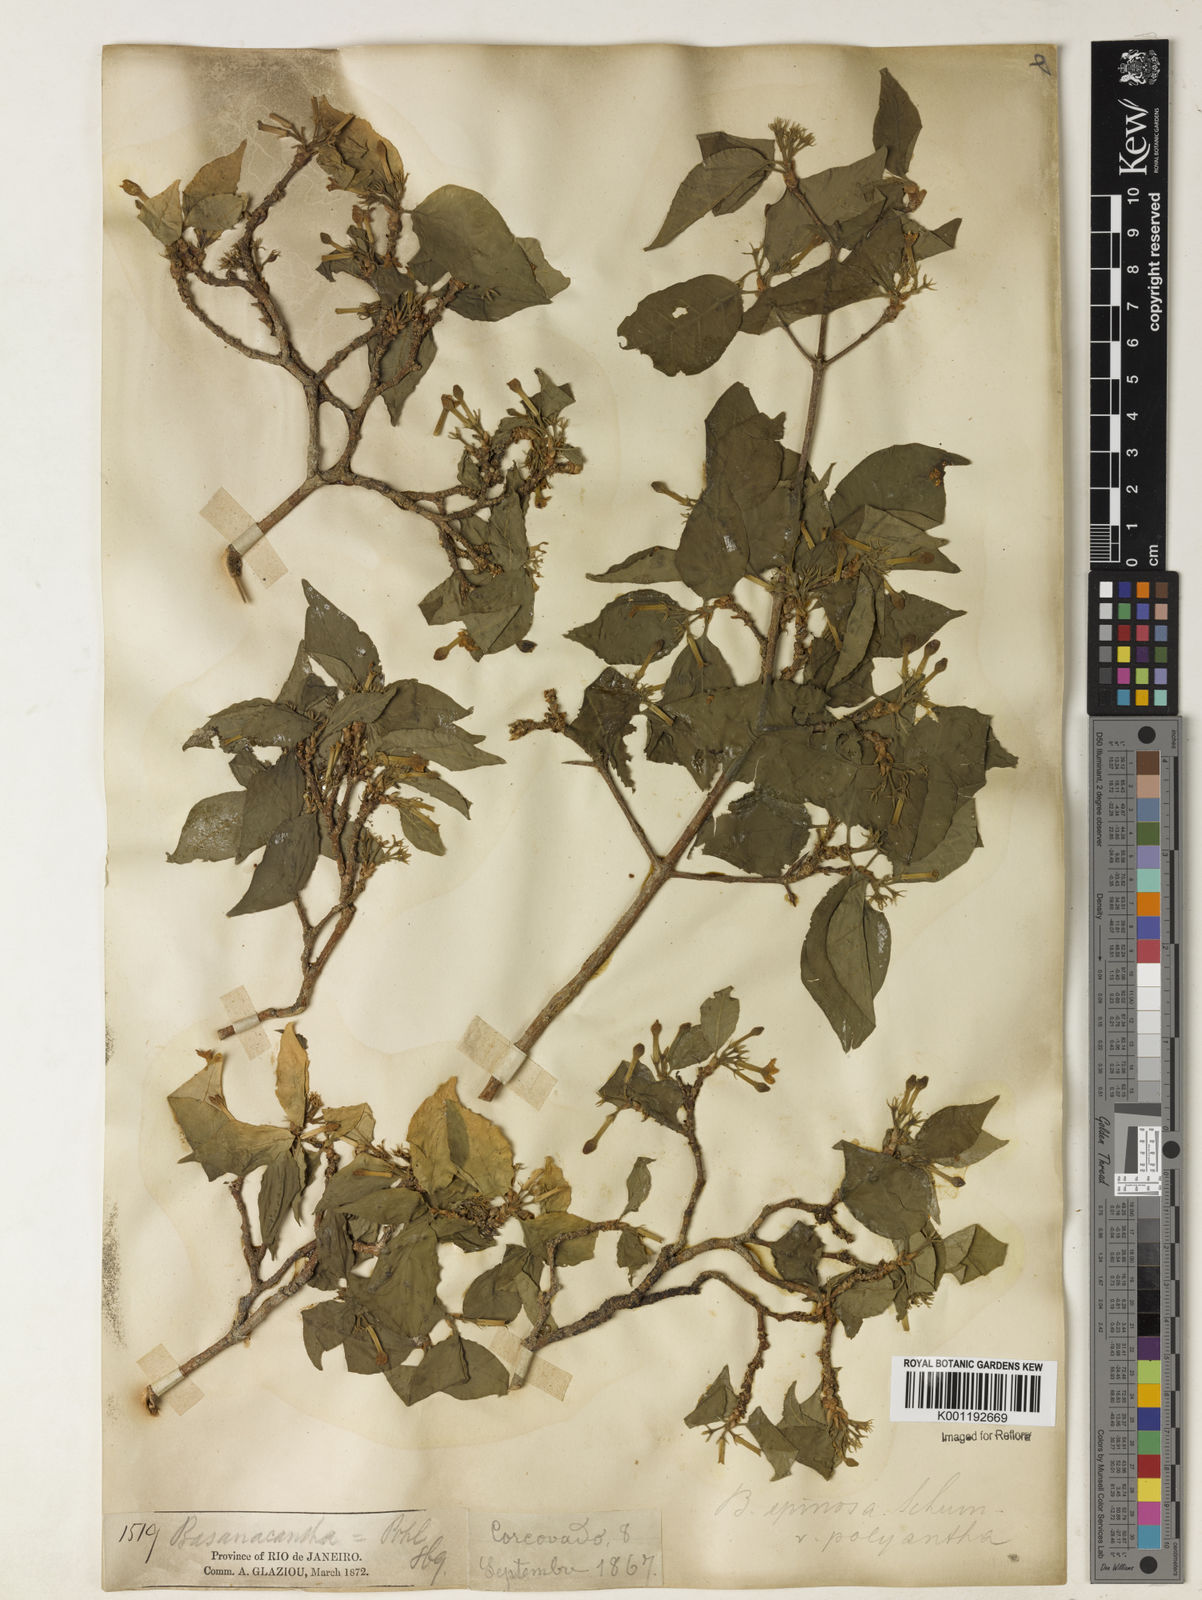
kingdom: Plantae
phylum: Tracheophyta
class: Magnoliopsida
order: Gentianales
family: Rubiaceae
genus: Randia
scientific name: Randia armata
